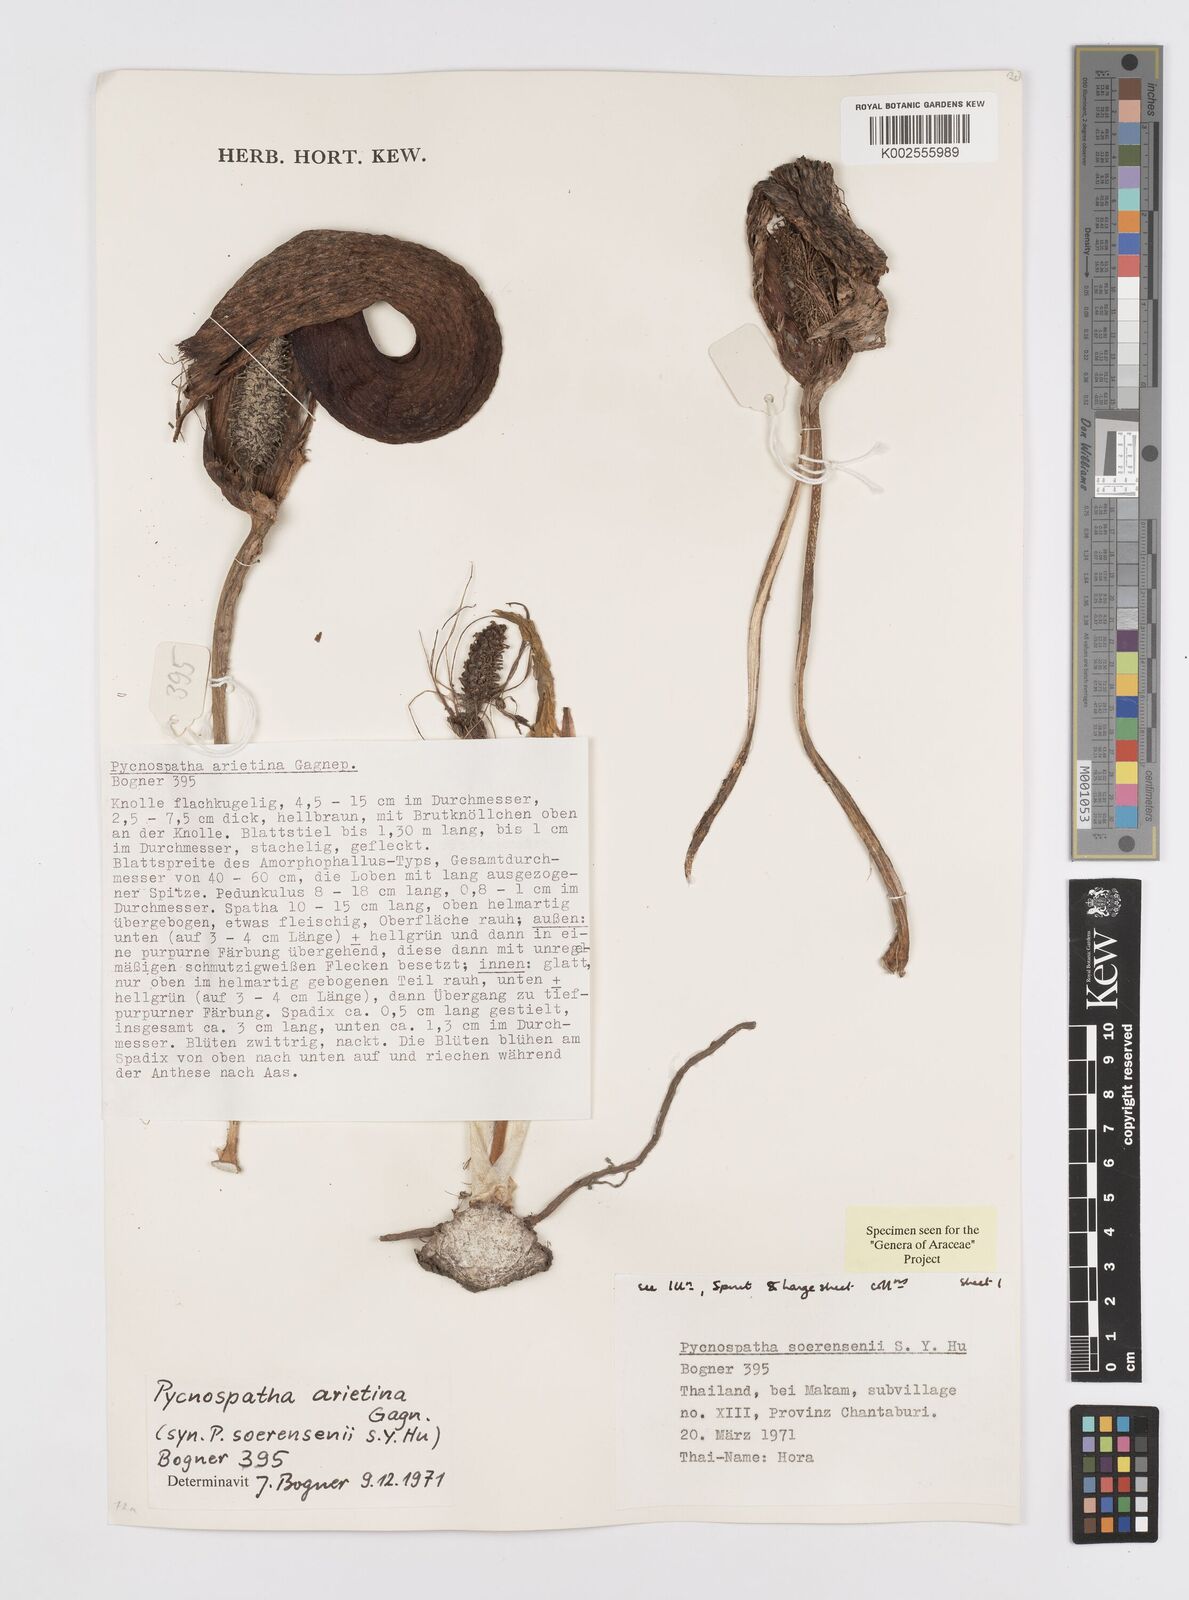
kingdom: Plantae
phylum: Tracheophyta
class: Liliopsida
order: Alismatales
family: Araceae
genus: Pycnospatha
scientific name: Pycnospatha arietina
